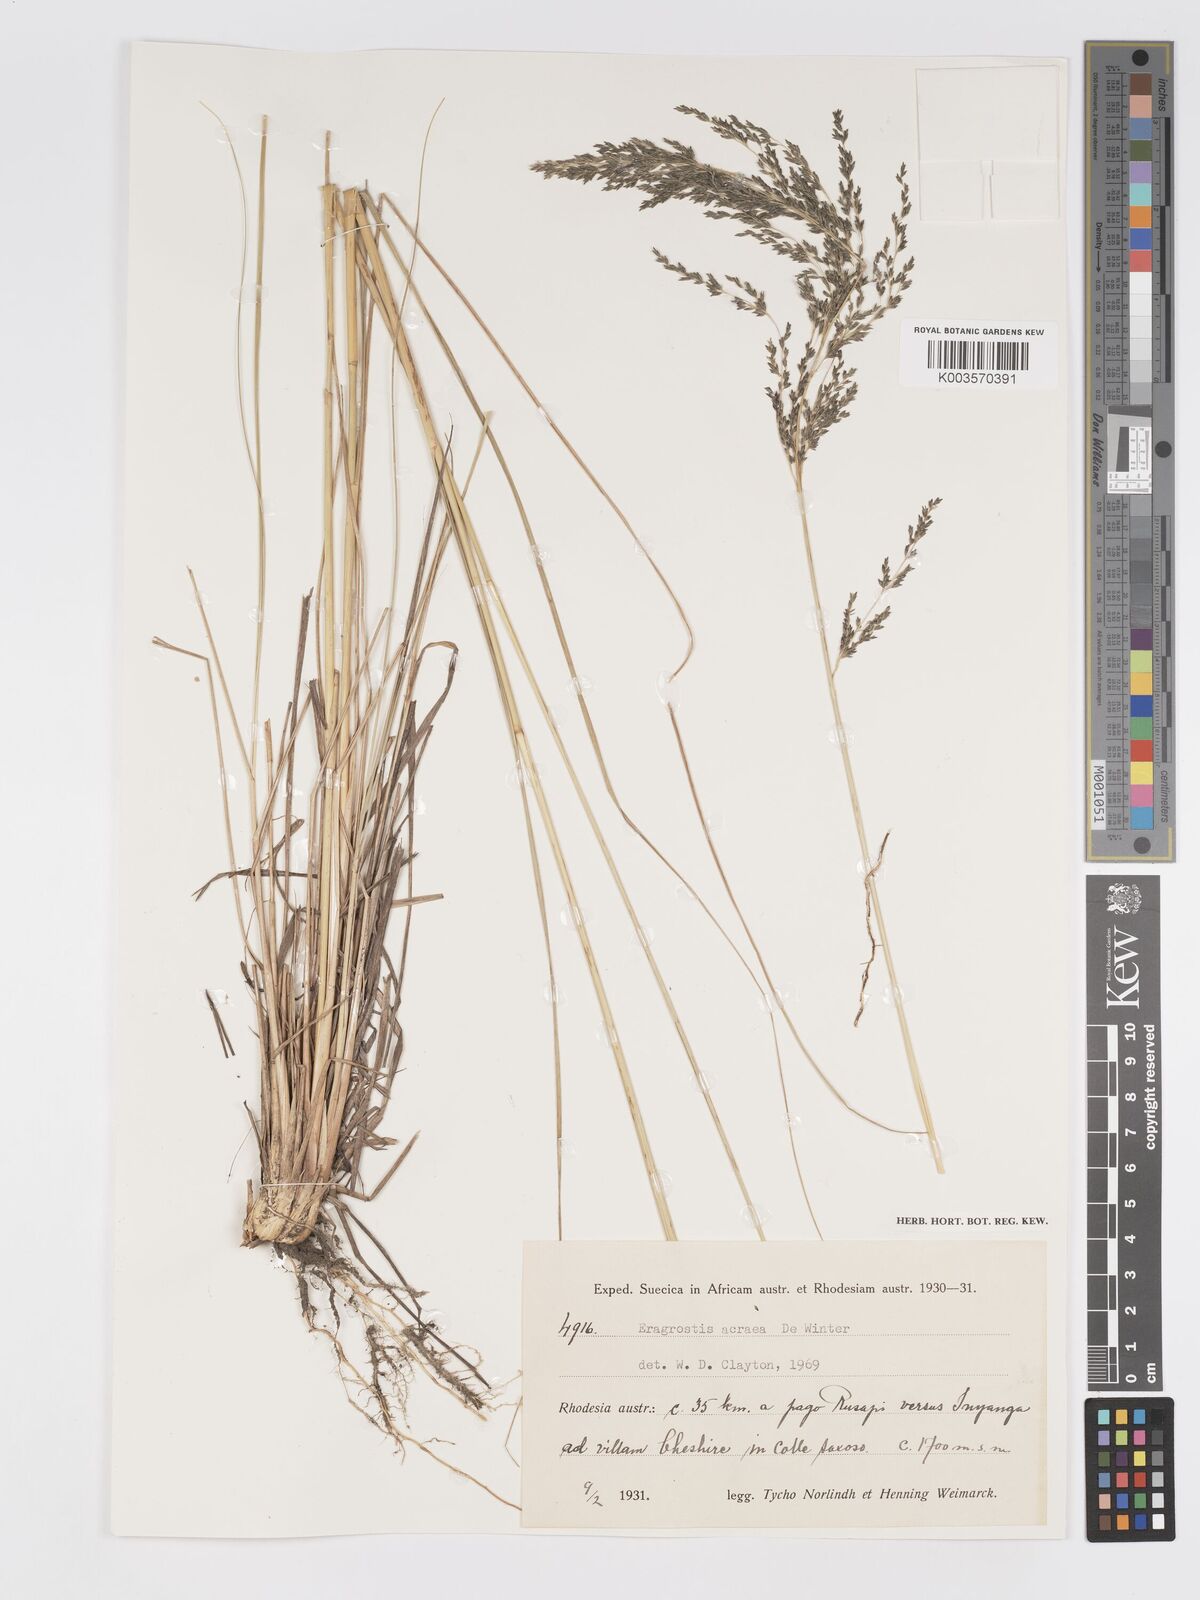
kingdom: Plantae
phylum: Tracheophyta
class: Liliopsida
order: Poales
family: Poaceae
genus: Eragrostis
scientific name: Eragrostis acraea
